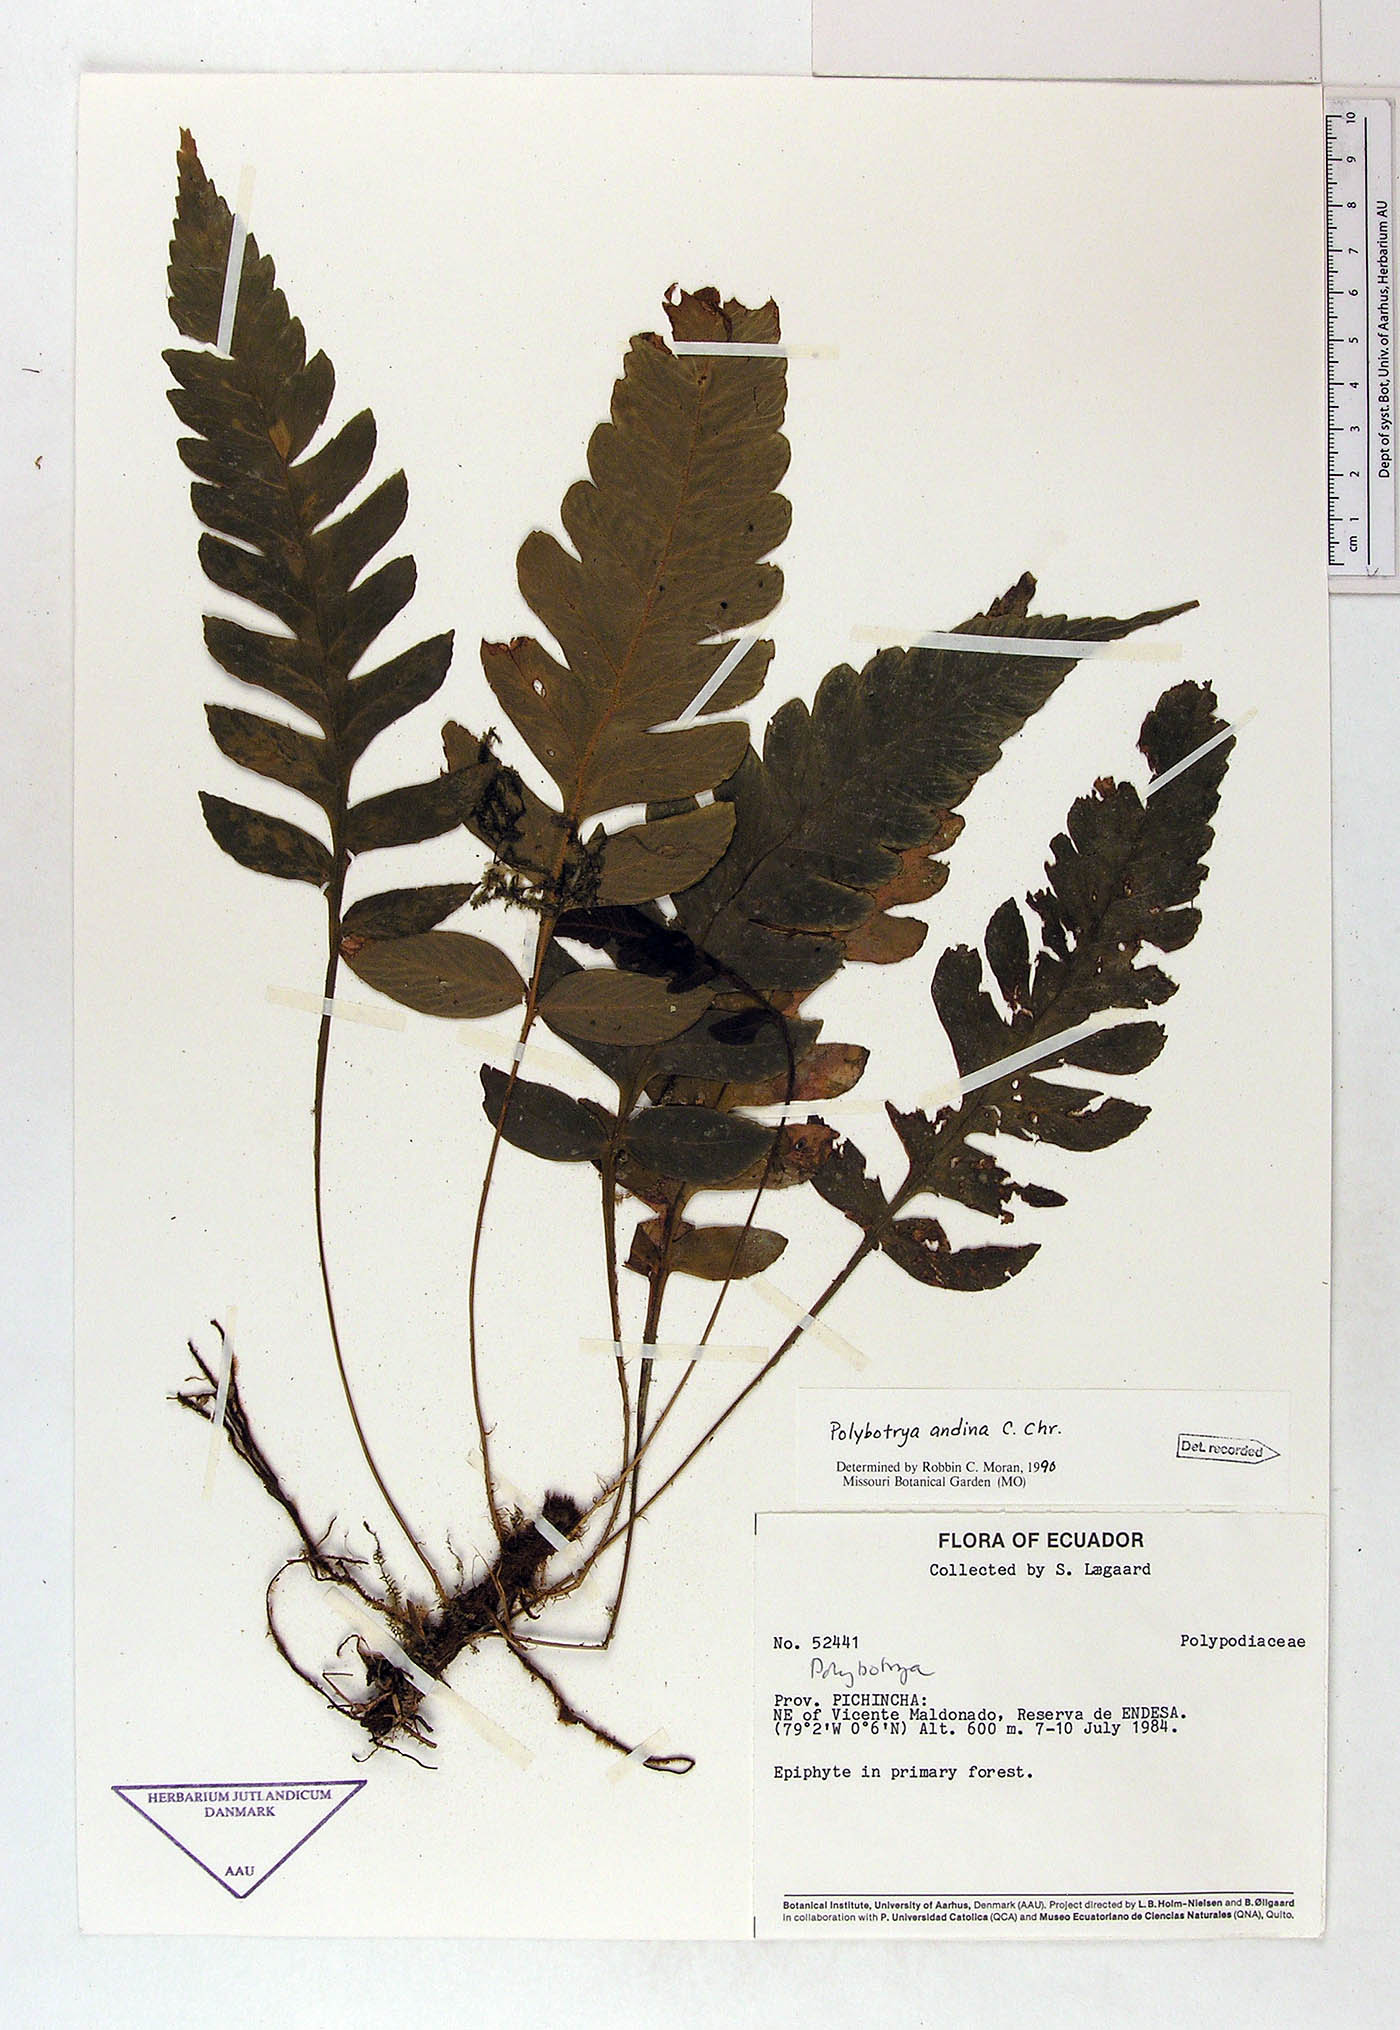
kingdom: Plantae
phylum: Tracheophyta
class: Polypodiopsida
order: Polypodiales
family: Dryopteridaceae
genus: Polybotrya
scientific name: Polybotrya andina
